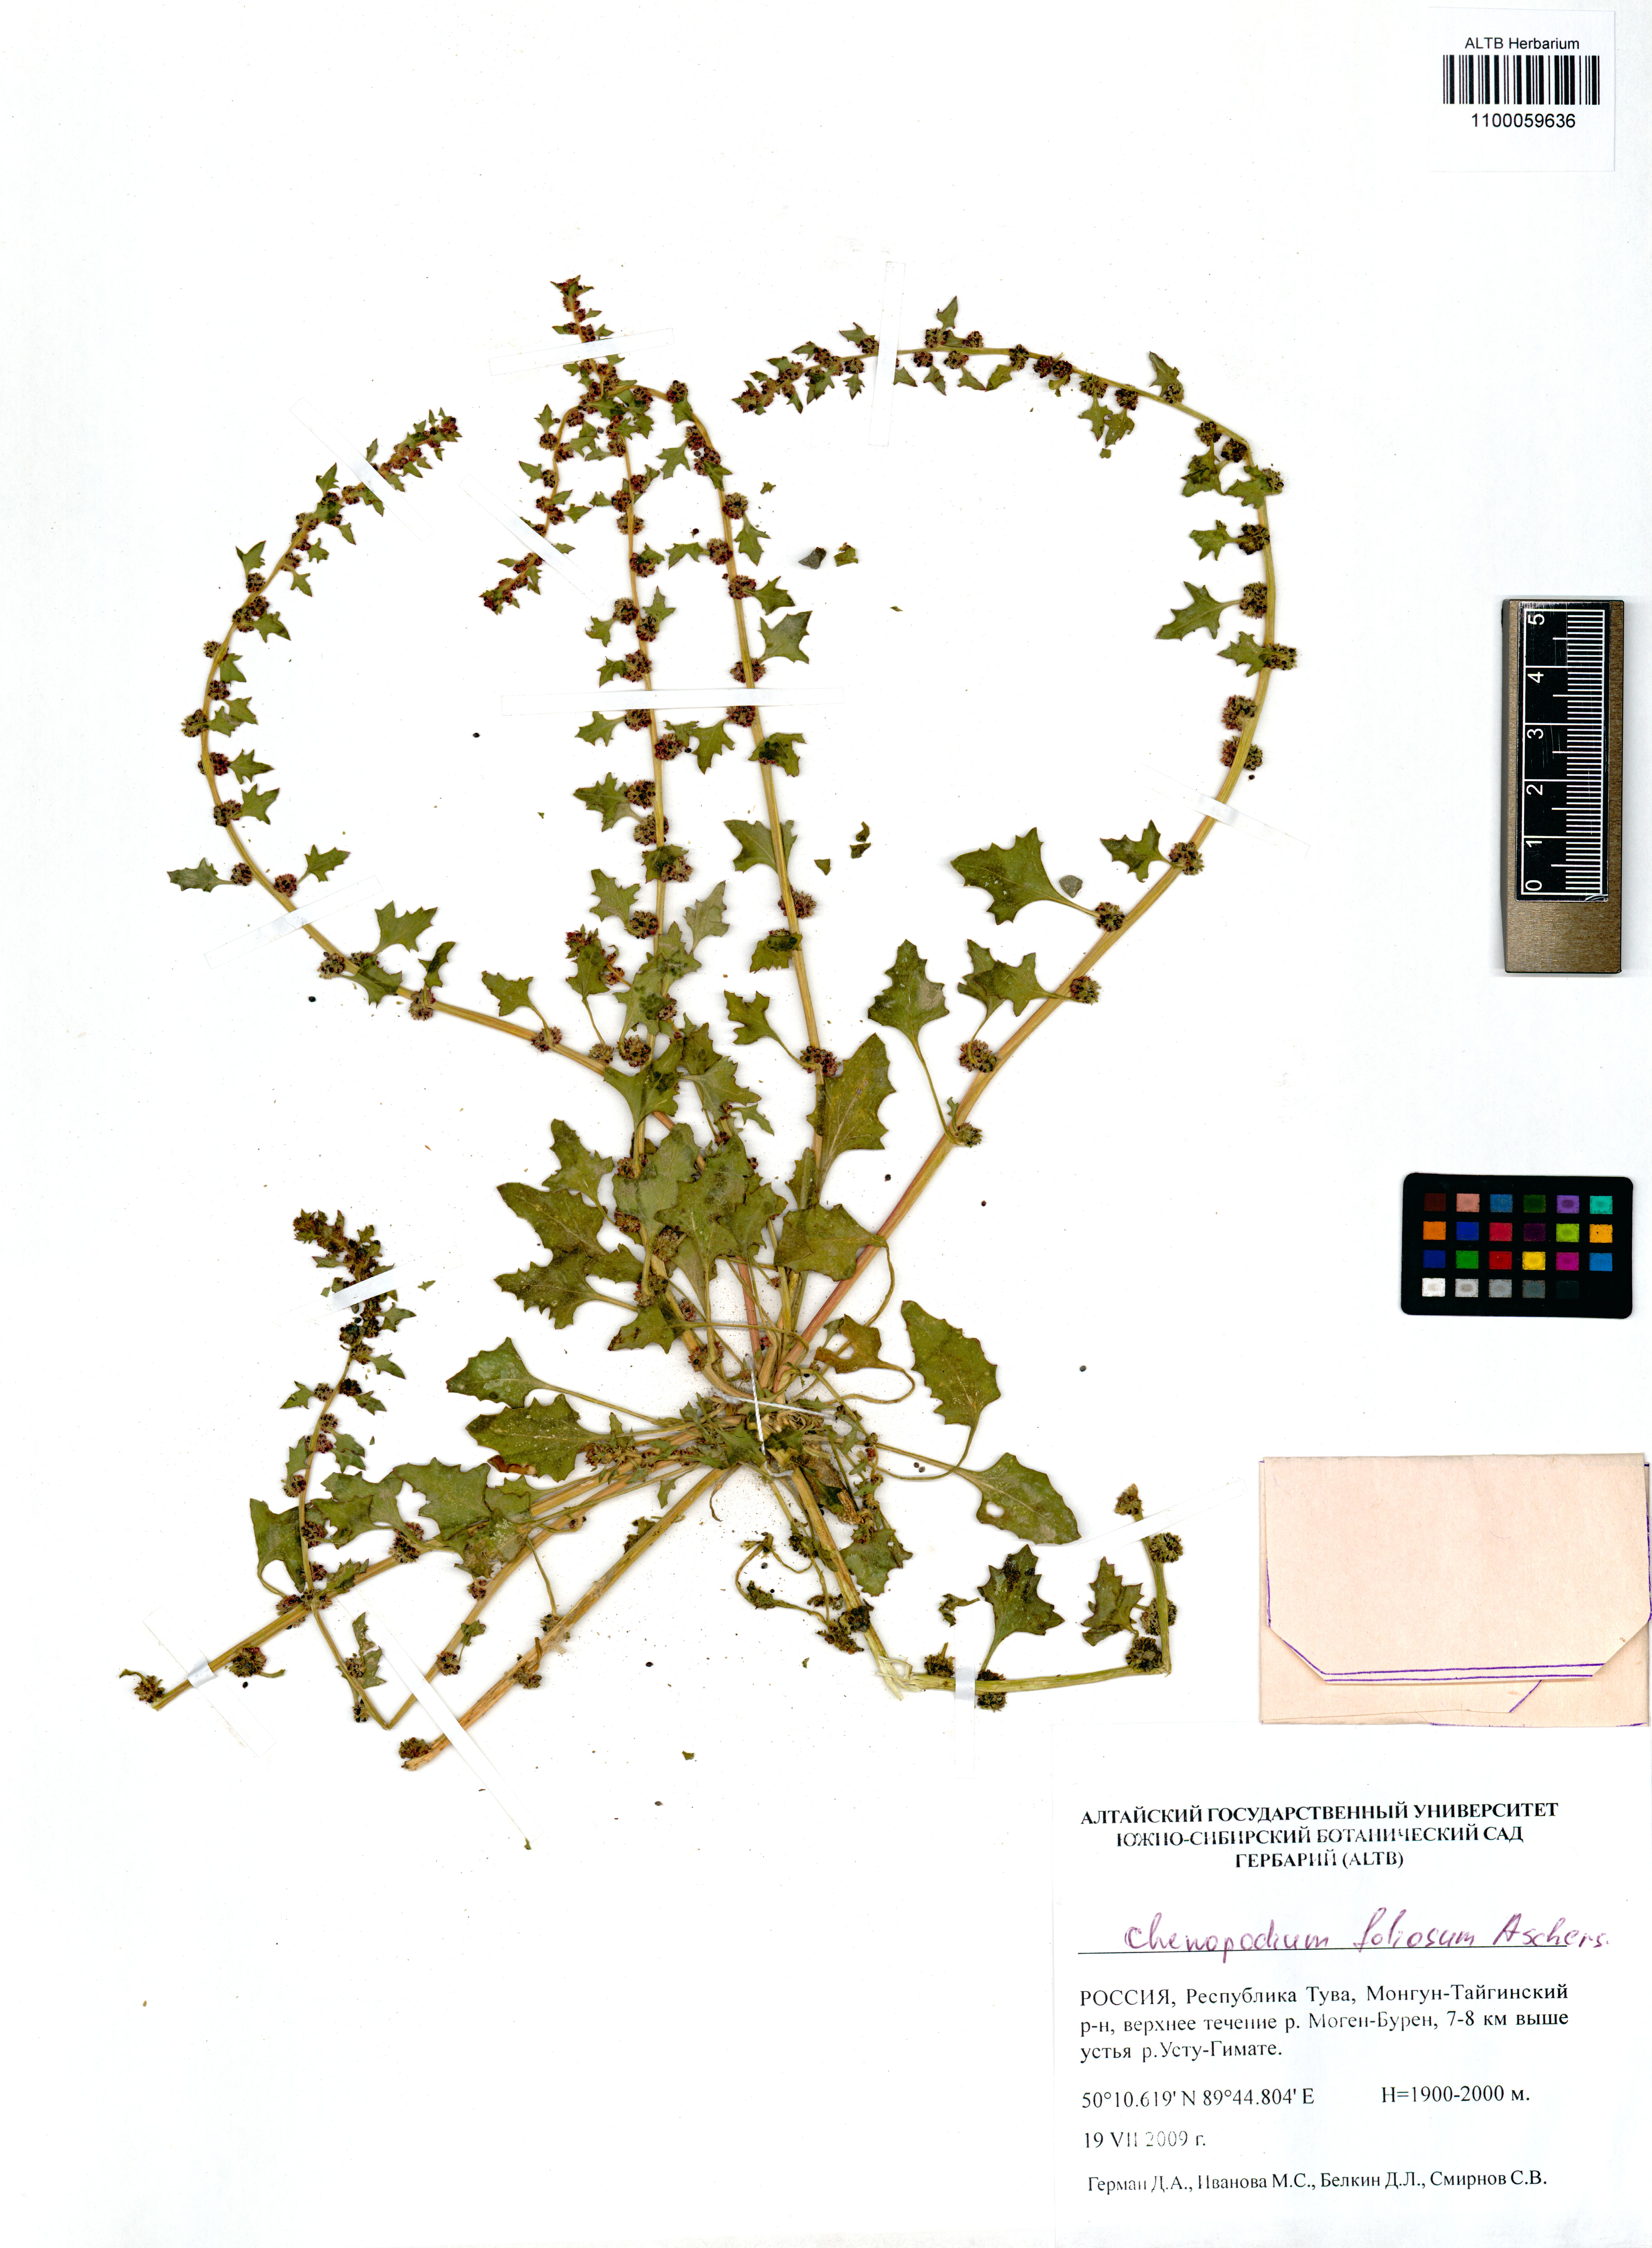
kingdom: Plantae
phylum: Tracheophyta
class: Magnoliopsida
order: Caryophyllales
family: Amaranthaceae
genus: Blitum
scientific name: Blitum virgatum
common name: Strawberry goosefoot
